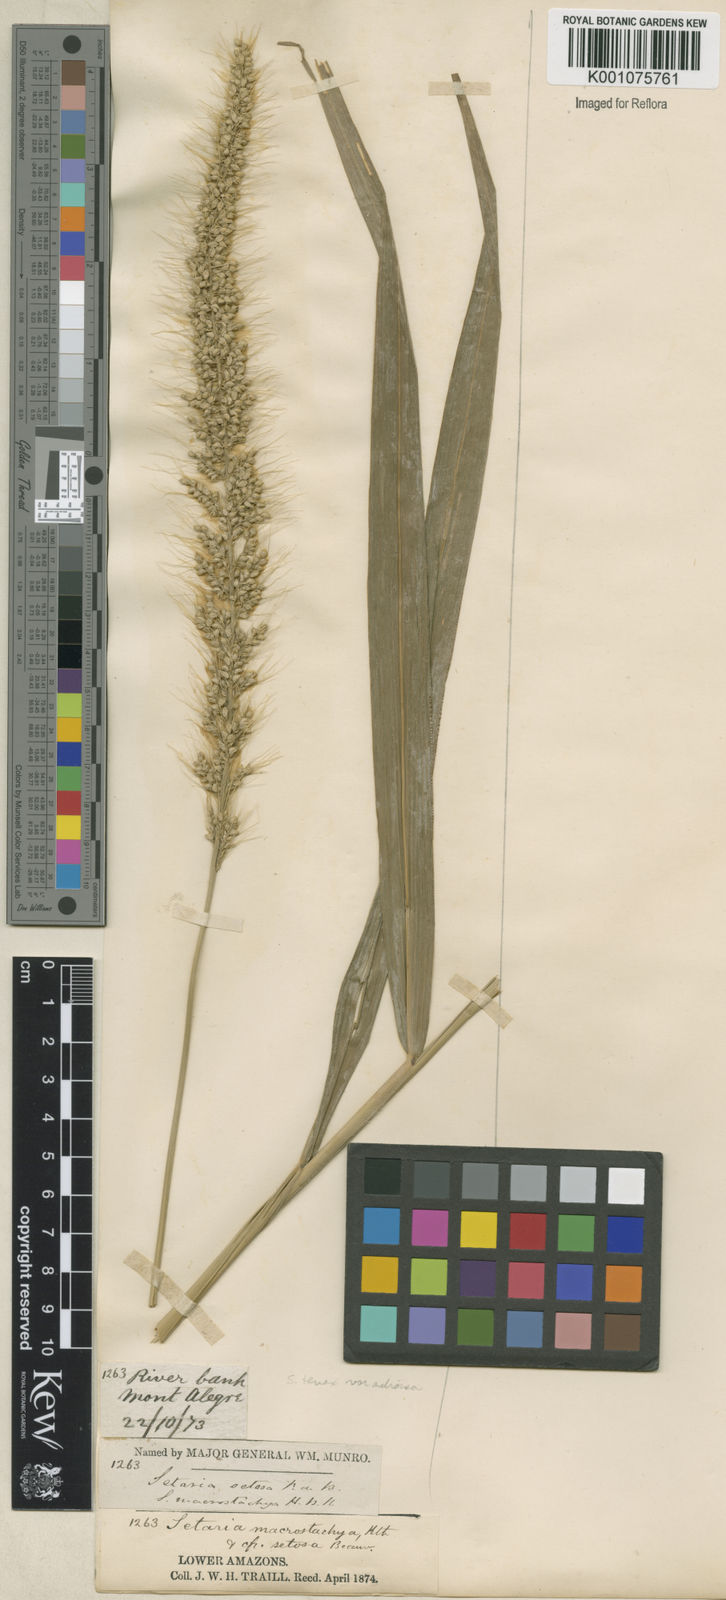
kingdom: Plantae
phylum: Tracheophyta
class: Liliopsida
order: Poales
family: Poaceae
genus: Setaria
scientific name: Setaria vulpiseta
